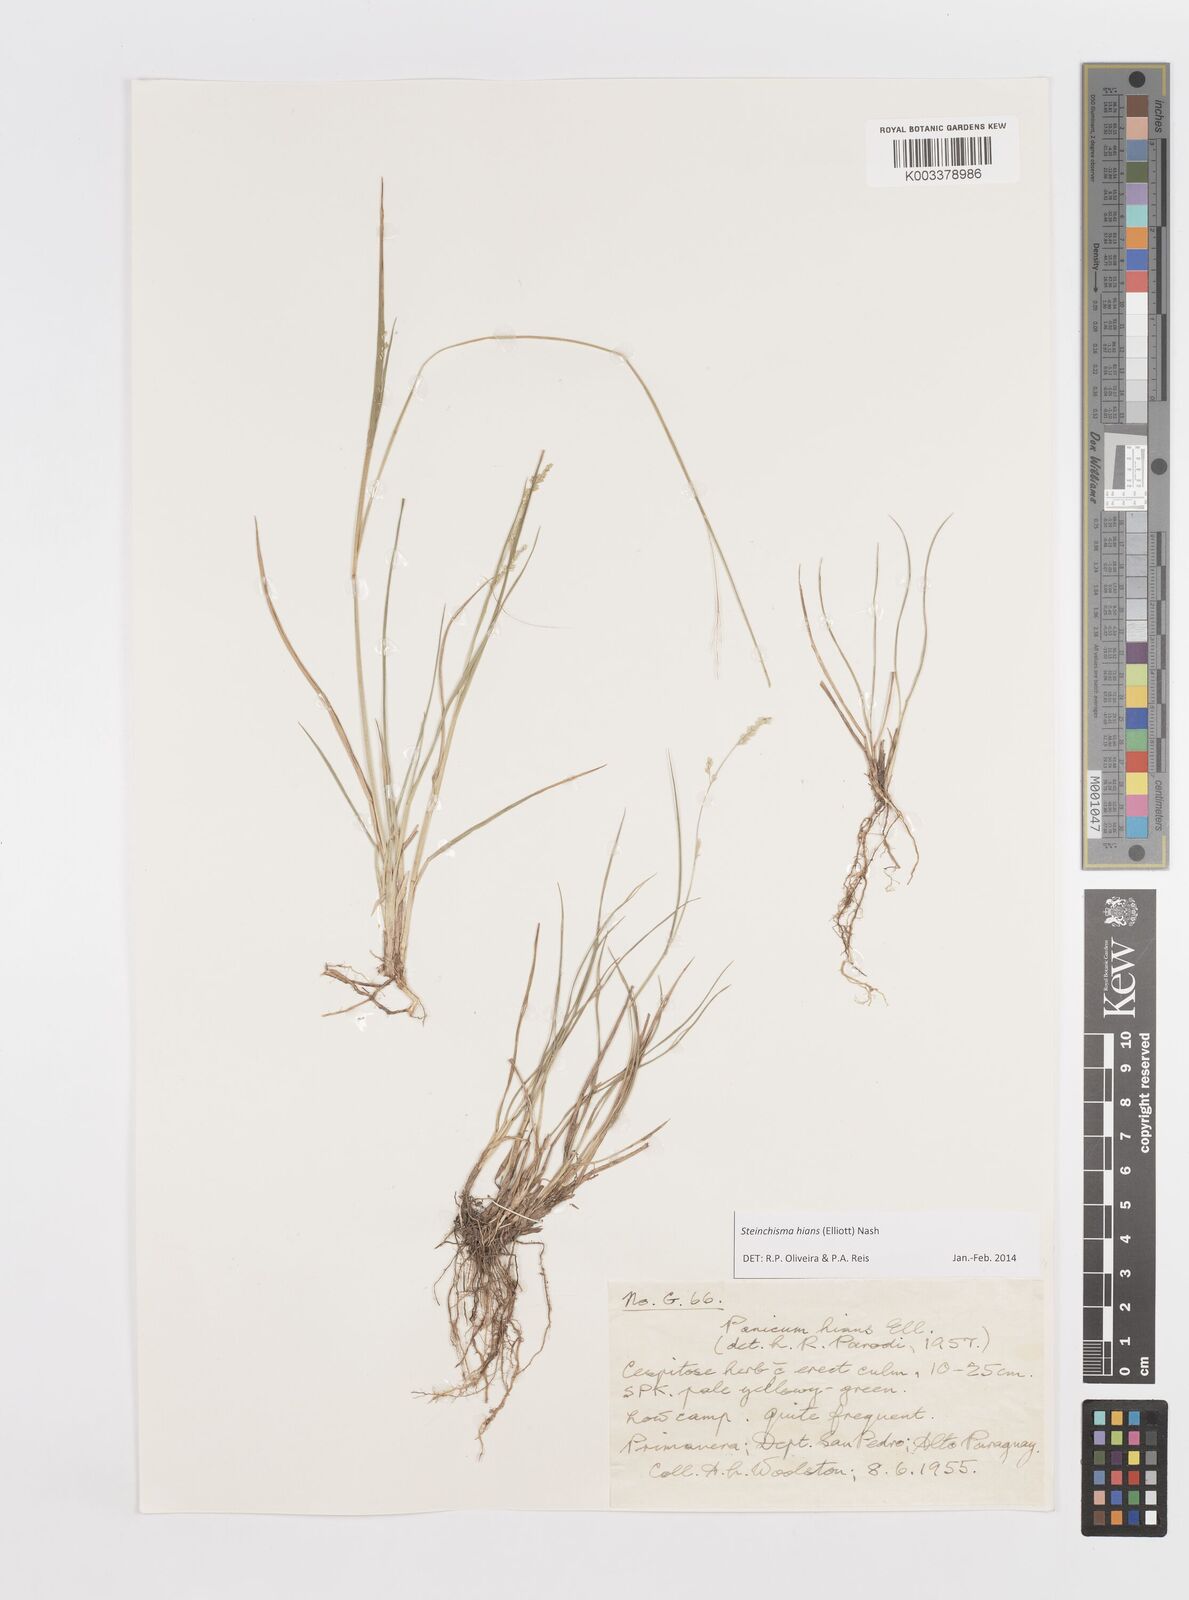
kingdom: Plantae
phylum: Tracheophyta
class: Liliopsida
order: Poales
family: Poaceae
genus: Steinchisma
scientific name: Steinchisma hians
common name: Gaping panic grass
